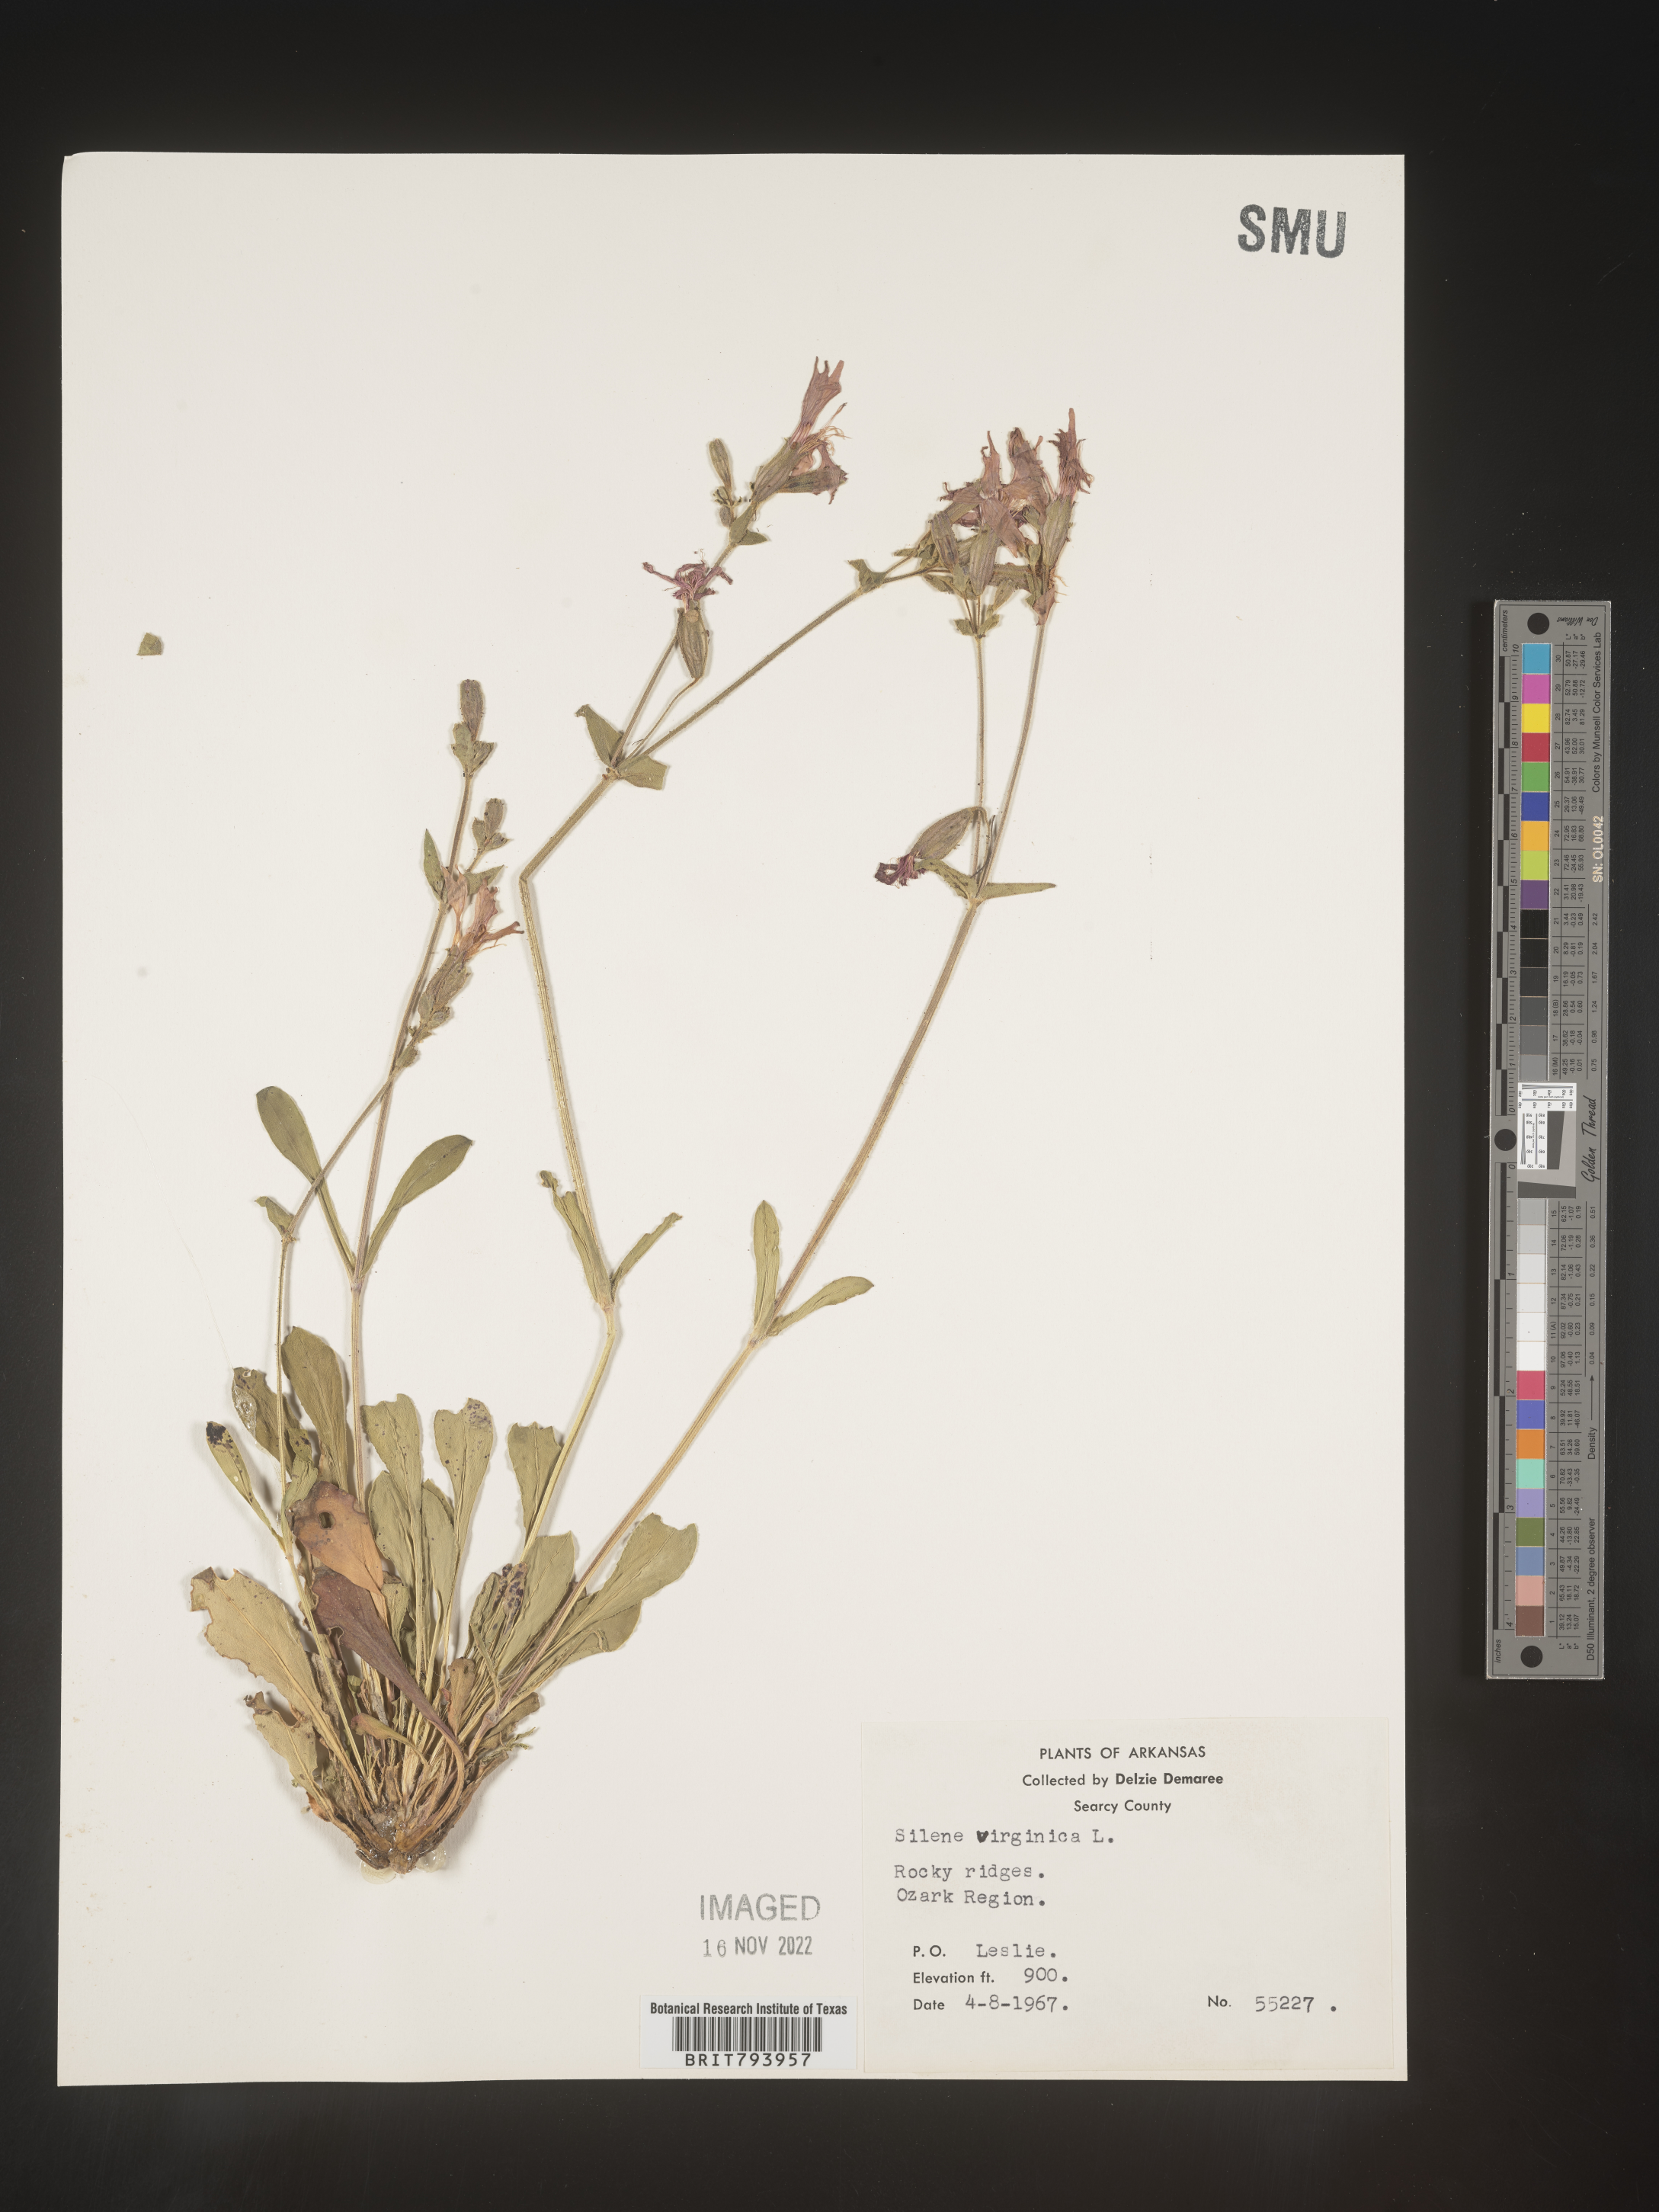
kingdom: Plantae
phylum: Tracheophyta
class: Magnoliopsida
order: Caryophyllales
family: Caryophyllaceae
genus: Silene
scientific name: Silene virginica
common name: Fire-pink
